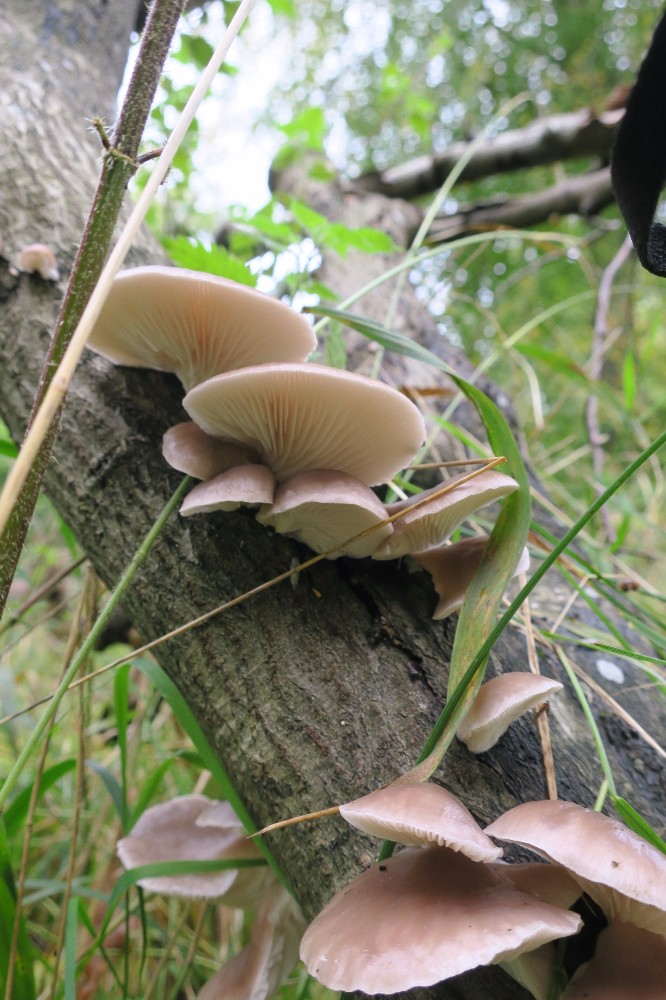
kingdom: Fungi
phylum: Basidiomycota
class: Agaricomycetes
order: Agaricales
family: Pleurotaceae
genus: Pleurotus
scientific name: Pleurotus ostreatus
